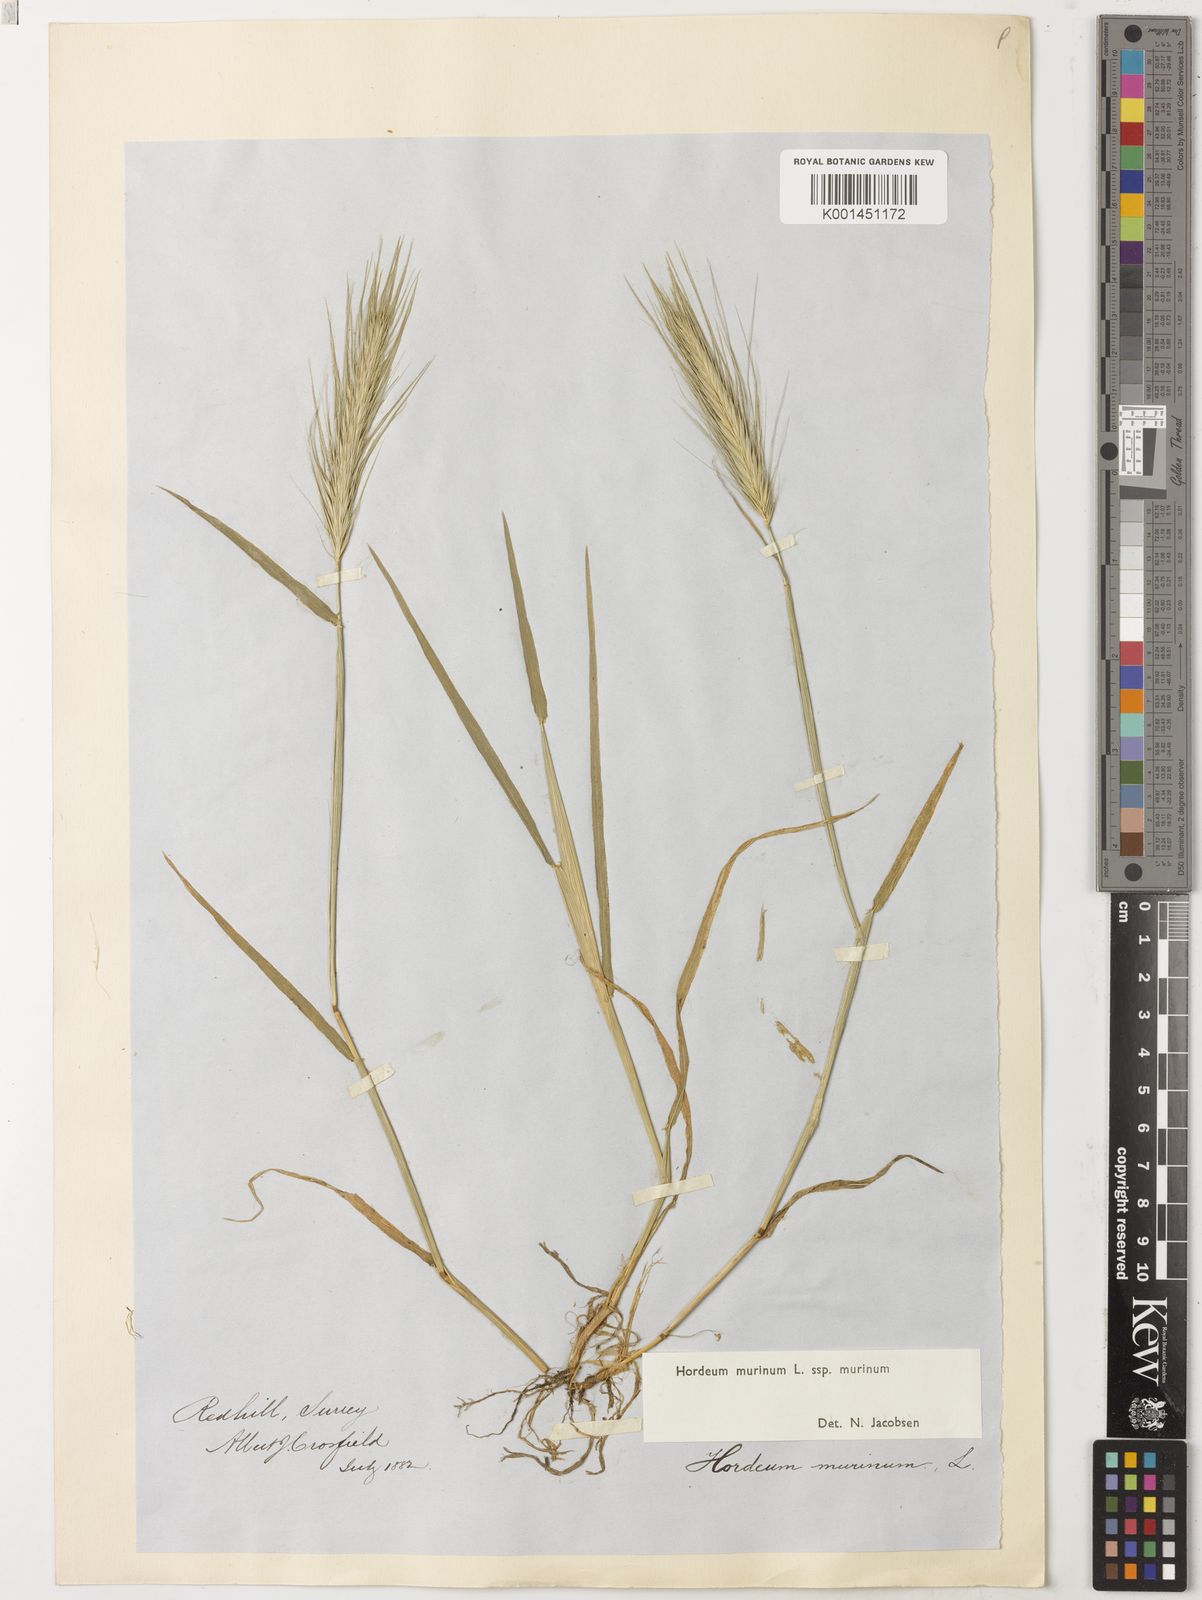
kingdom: Plantae
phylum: Tracheophyta
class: Liliopsida
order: Poales
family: Poaceae
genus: Hordeum
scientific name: Hordeum murinum
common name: Wall barley
